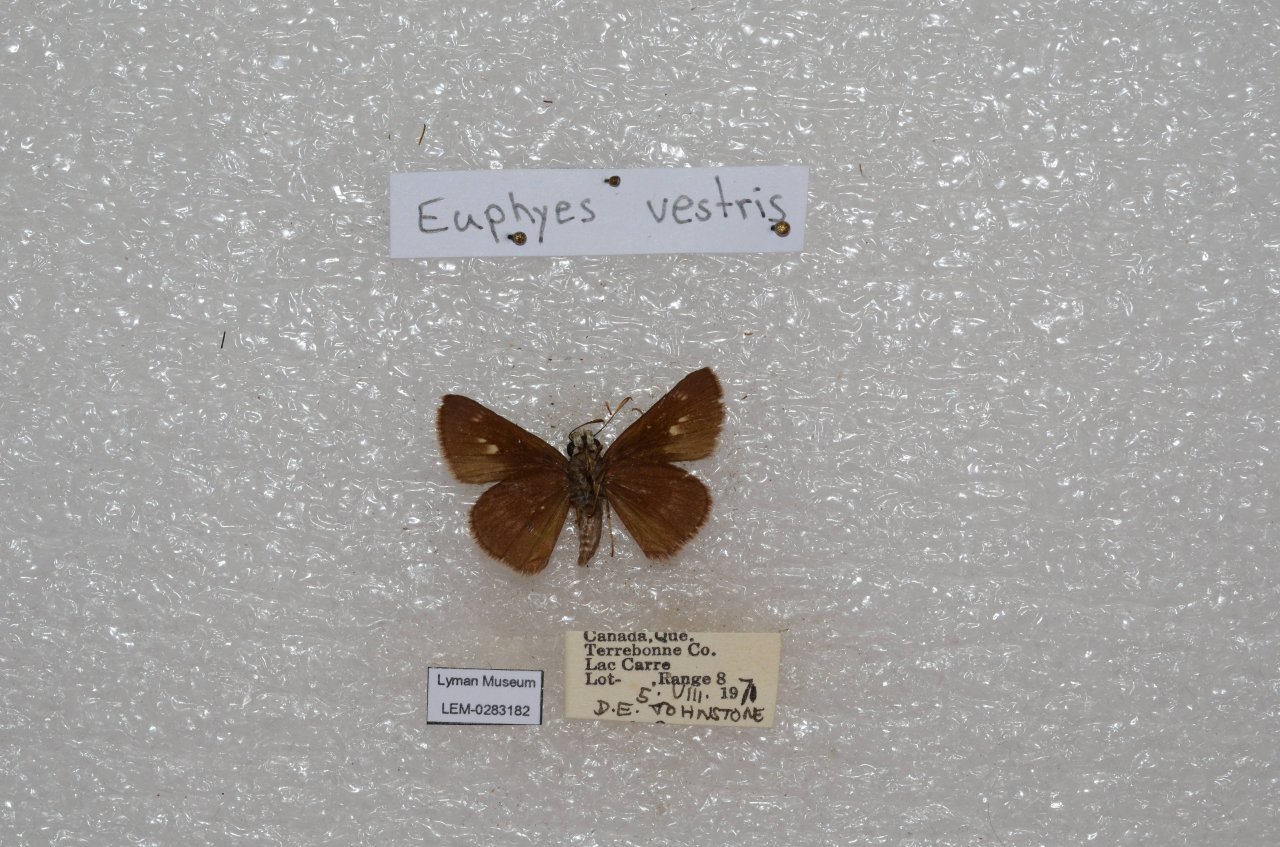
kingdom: Animalia
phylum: Arthropoda
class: Insecta
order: Lepidoptera
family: Hesperiidae
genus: Euphyes
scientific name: Euphyes vestris
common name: Dun Skipper
